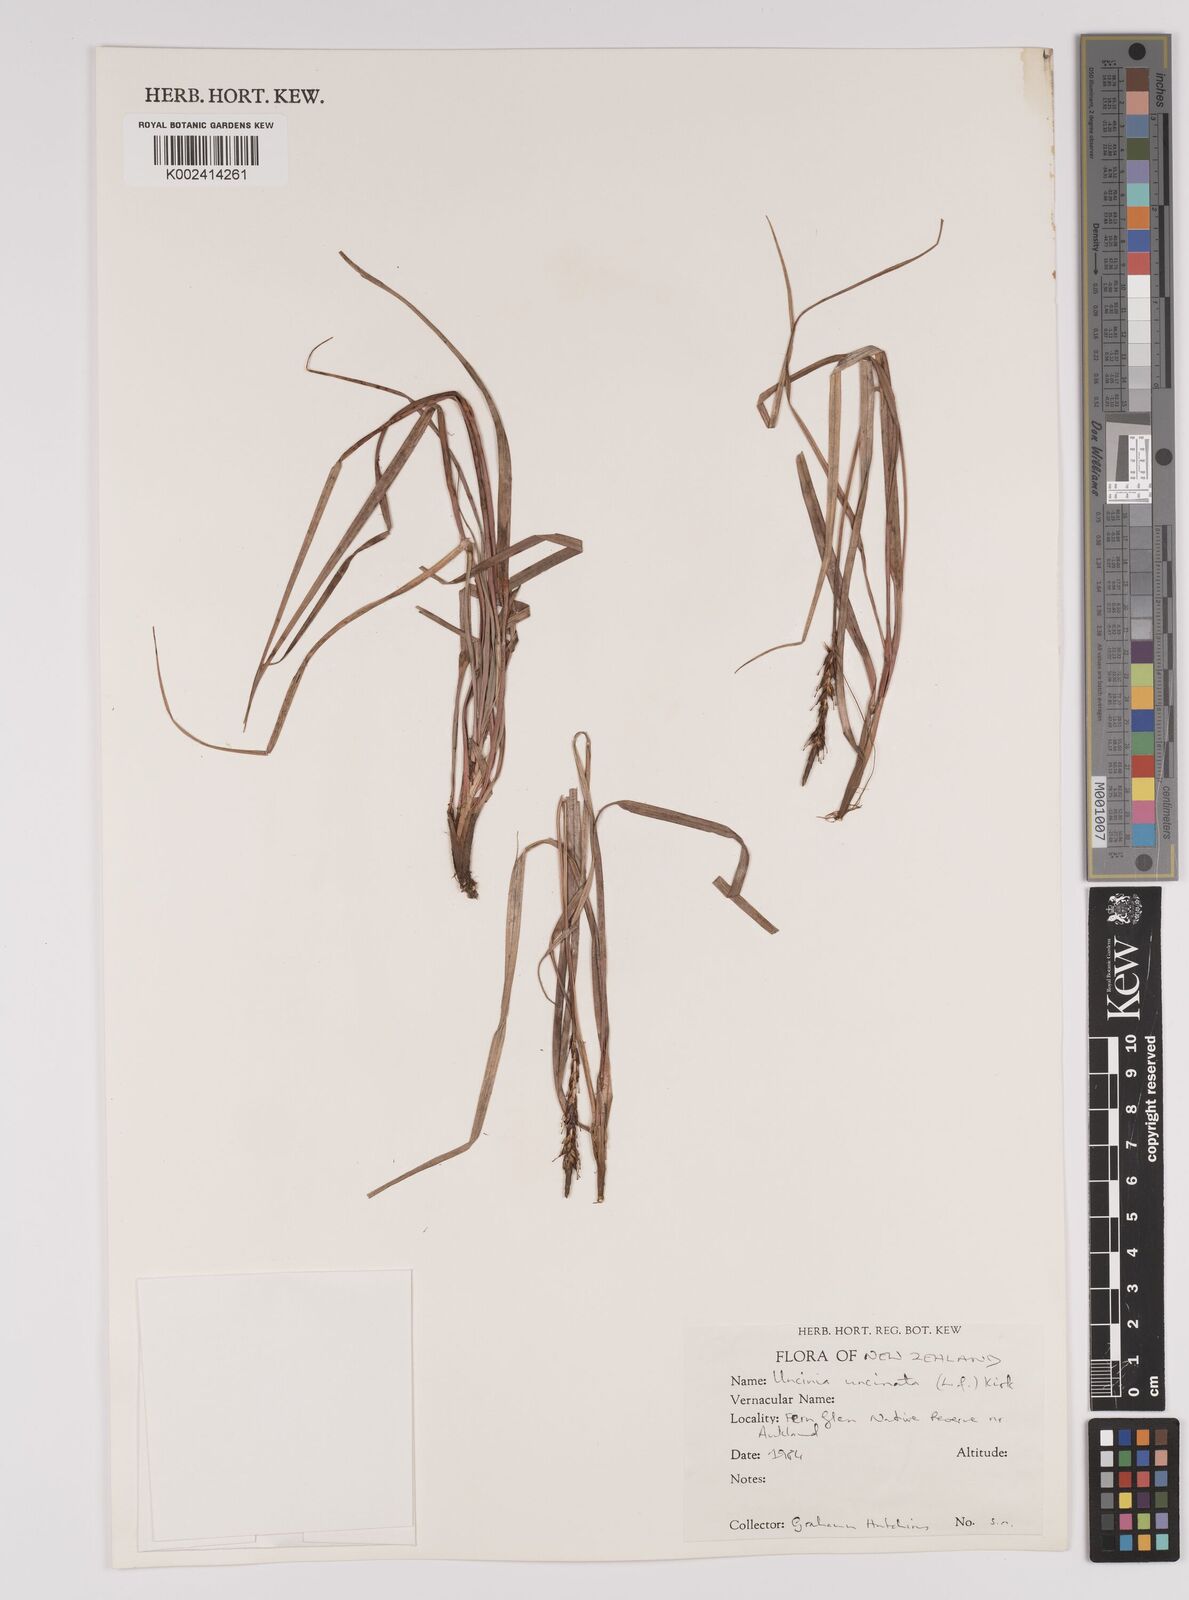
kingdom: Plantae
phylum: Tracheophyta
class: Liliopsida
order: Poales
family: Cyperaceae
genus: Carex
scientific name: Carex uncinata
